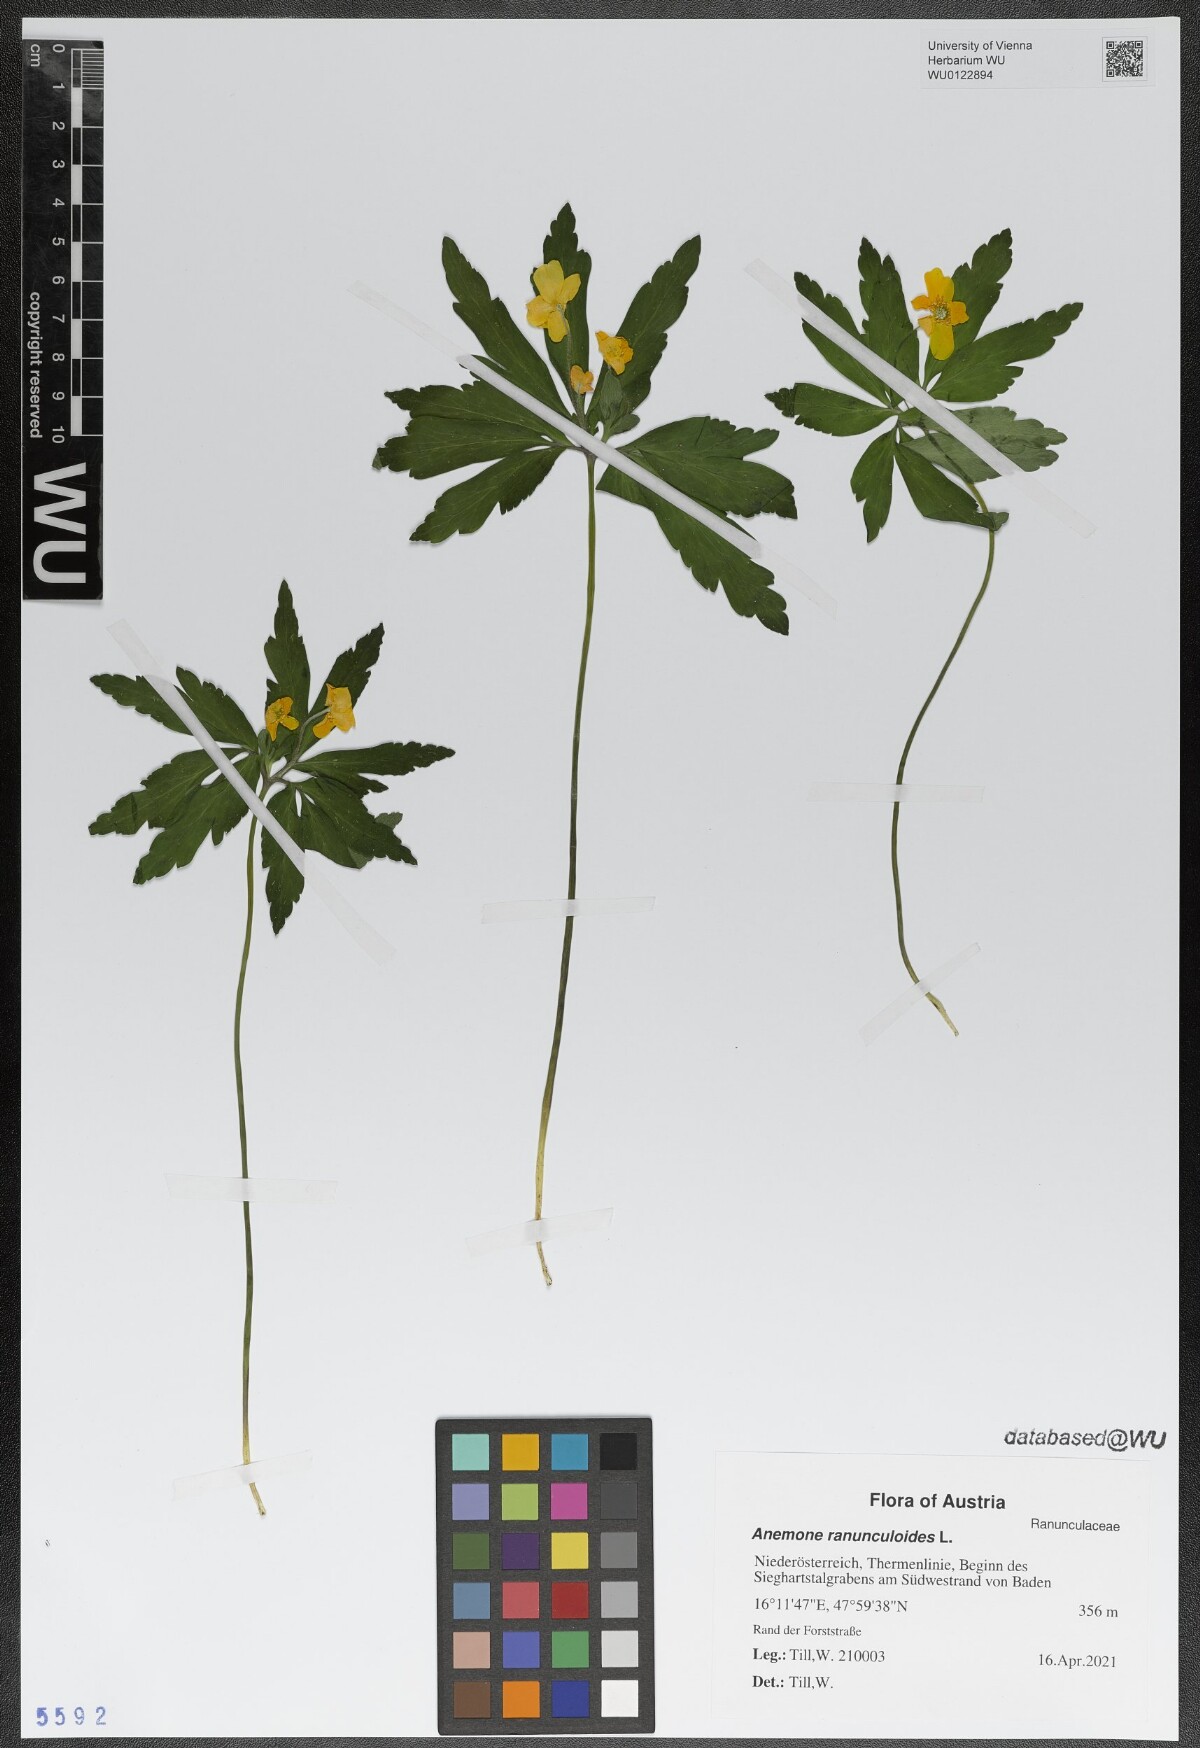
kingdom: Plantae
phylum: Tracheophyta
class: Magnoliopsida
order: Ranunculales
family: Ranunculaceae
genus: Anemone
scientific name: Anemone ranunculoides
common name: Yellow anemone
